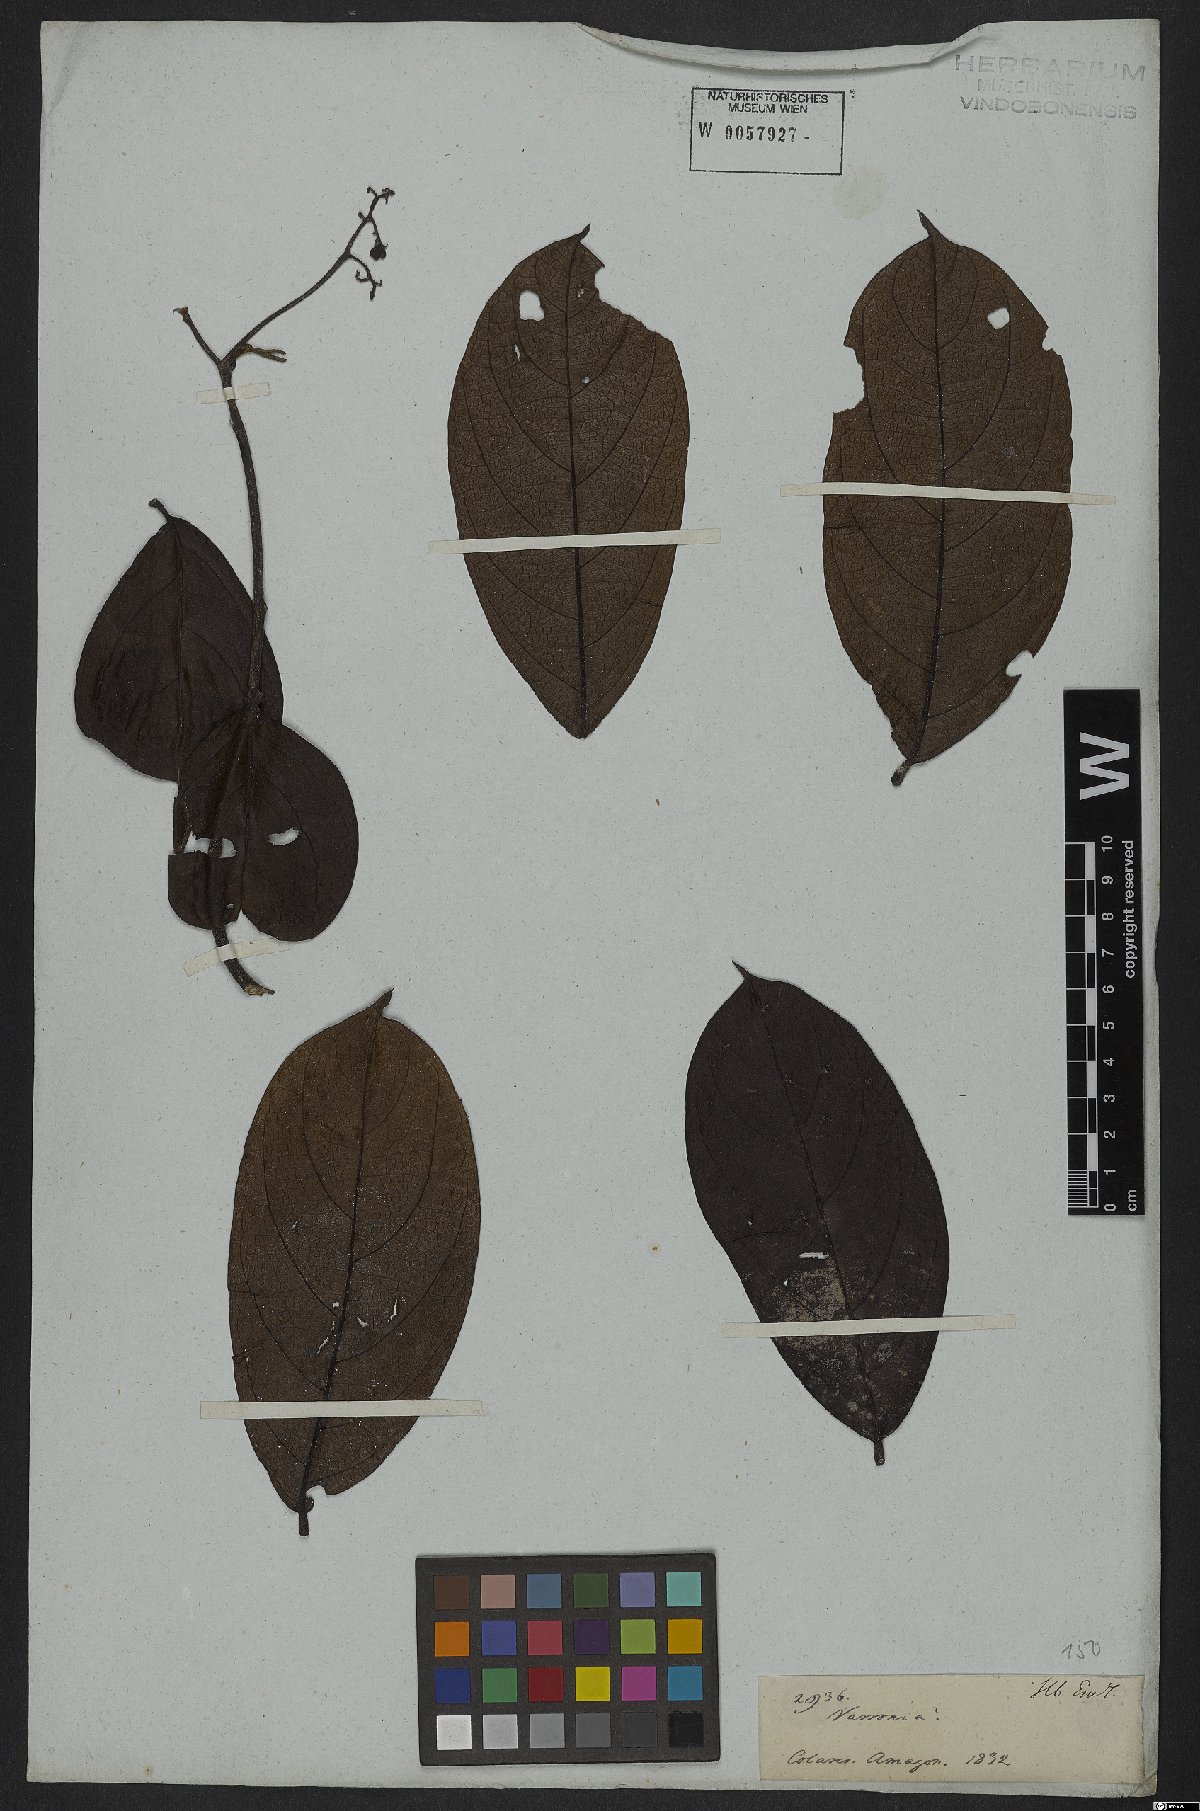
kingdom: Plantae
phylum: Tracheophyta
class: Magnoliopsida
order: Boraginales
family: Cordiaceae
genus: Cordia
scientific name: Cordia
